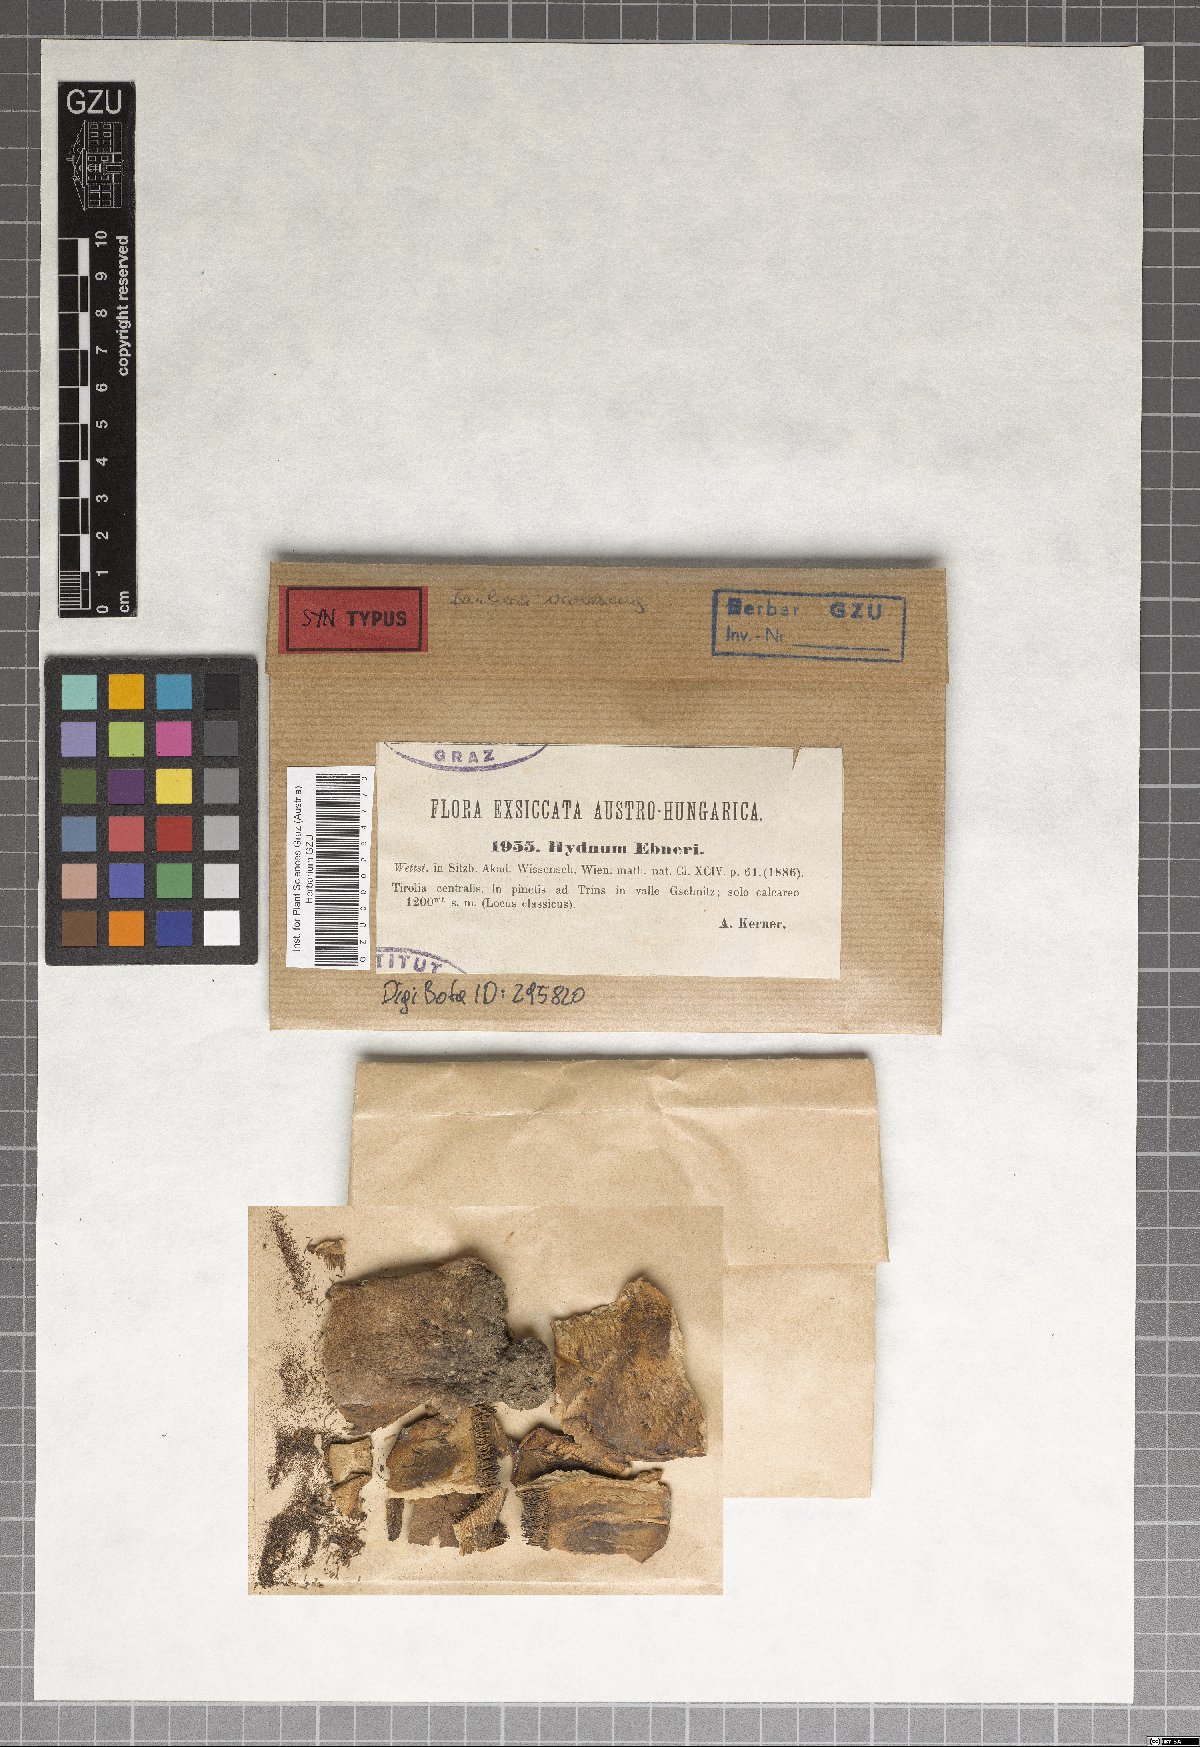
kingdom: Fungi
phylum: Basidiomycota
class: Agaricomycetes
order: Cantharellales
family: Hydnaceae
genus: Hydnum
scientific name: Hydnum ebneri
